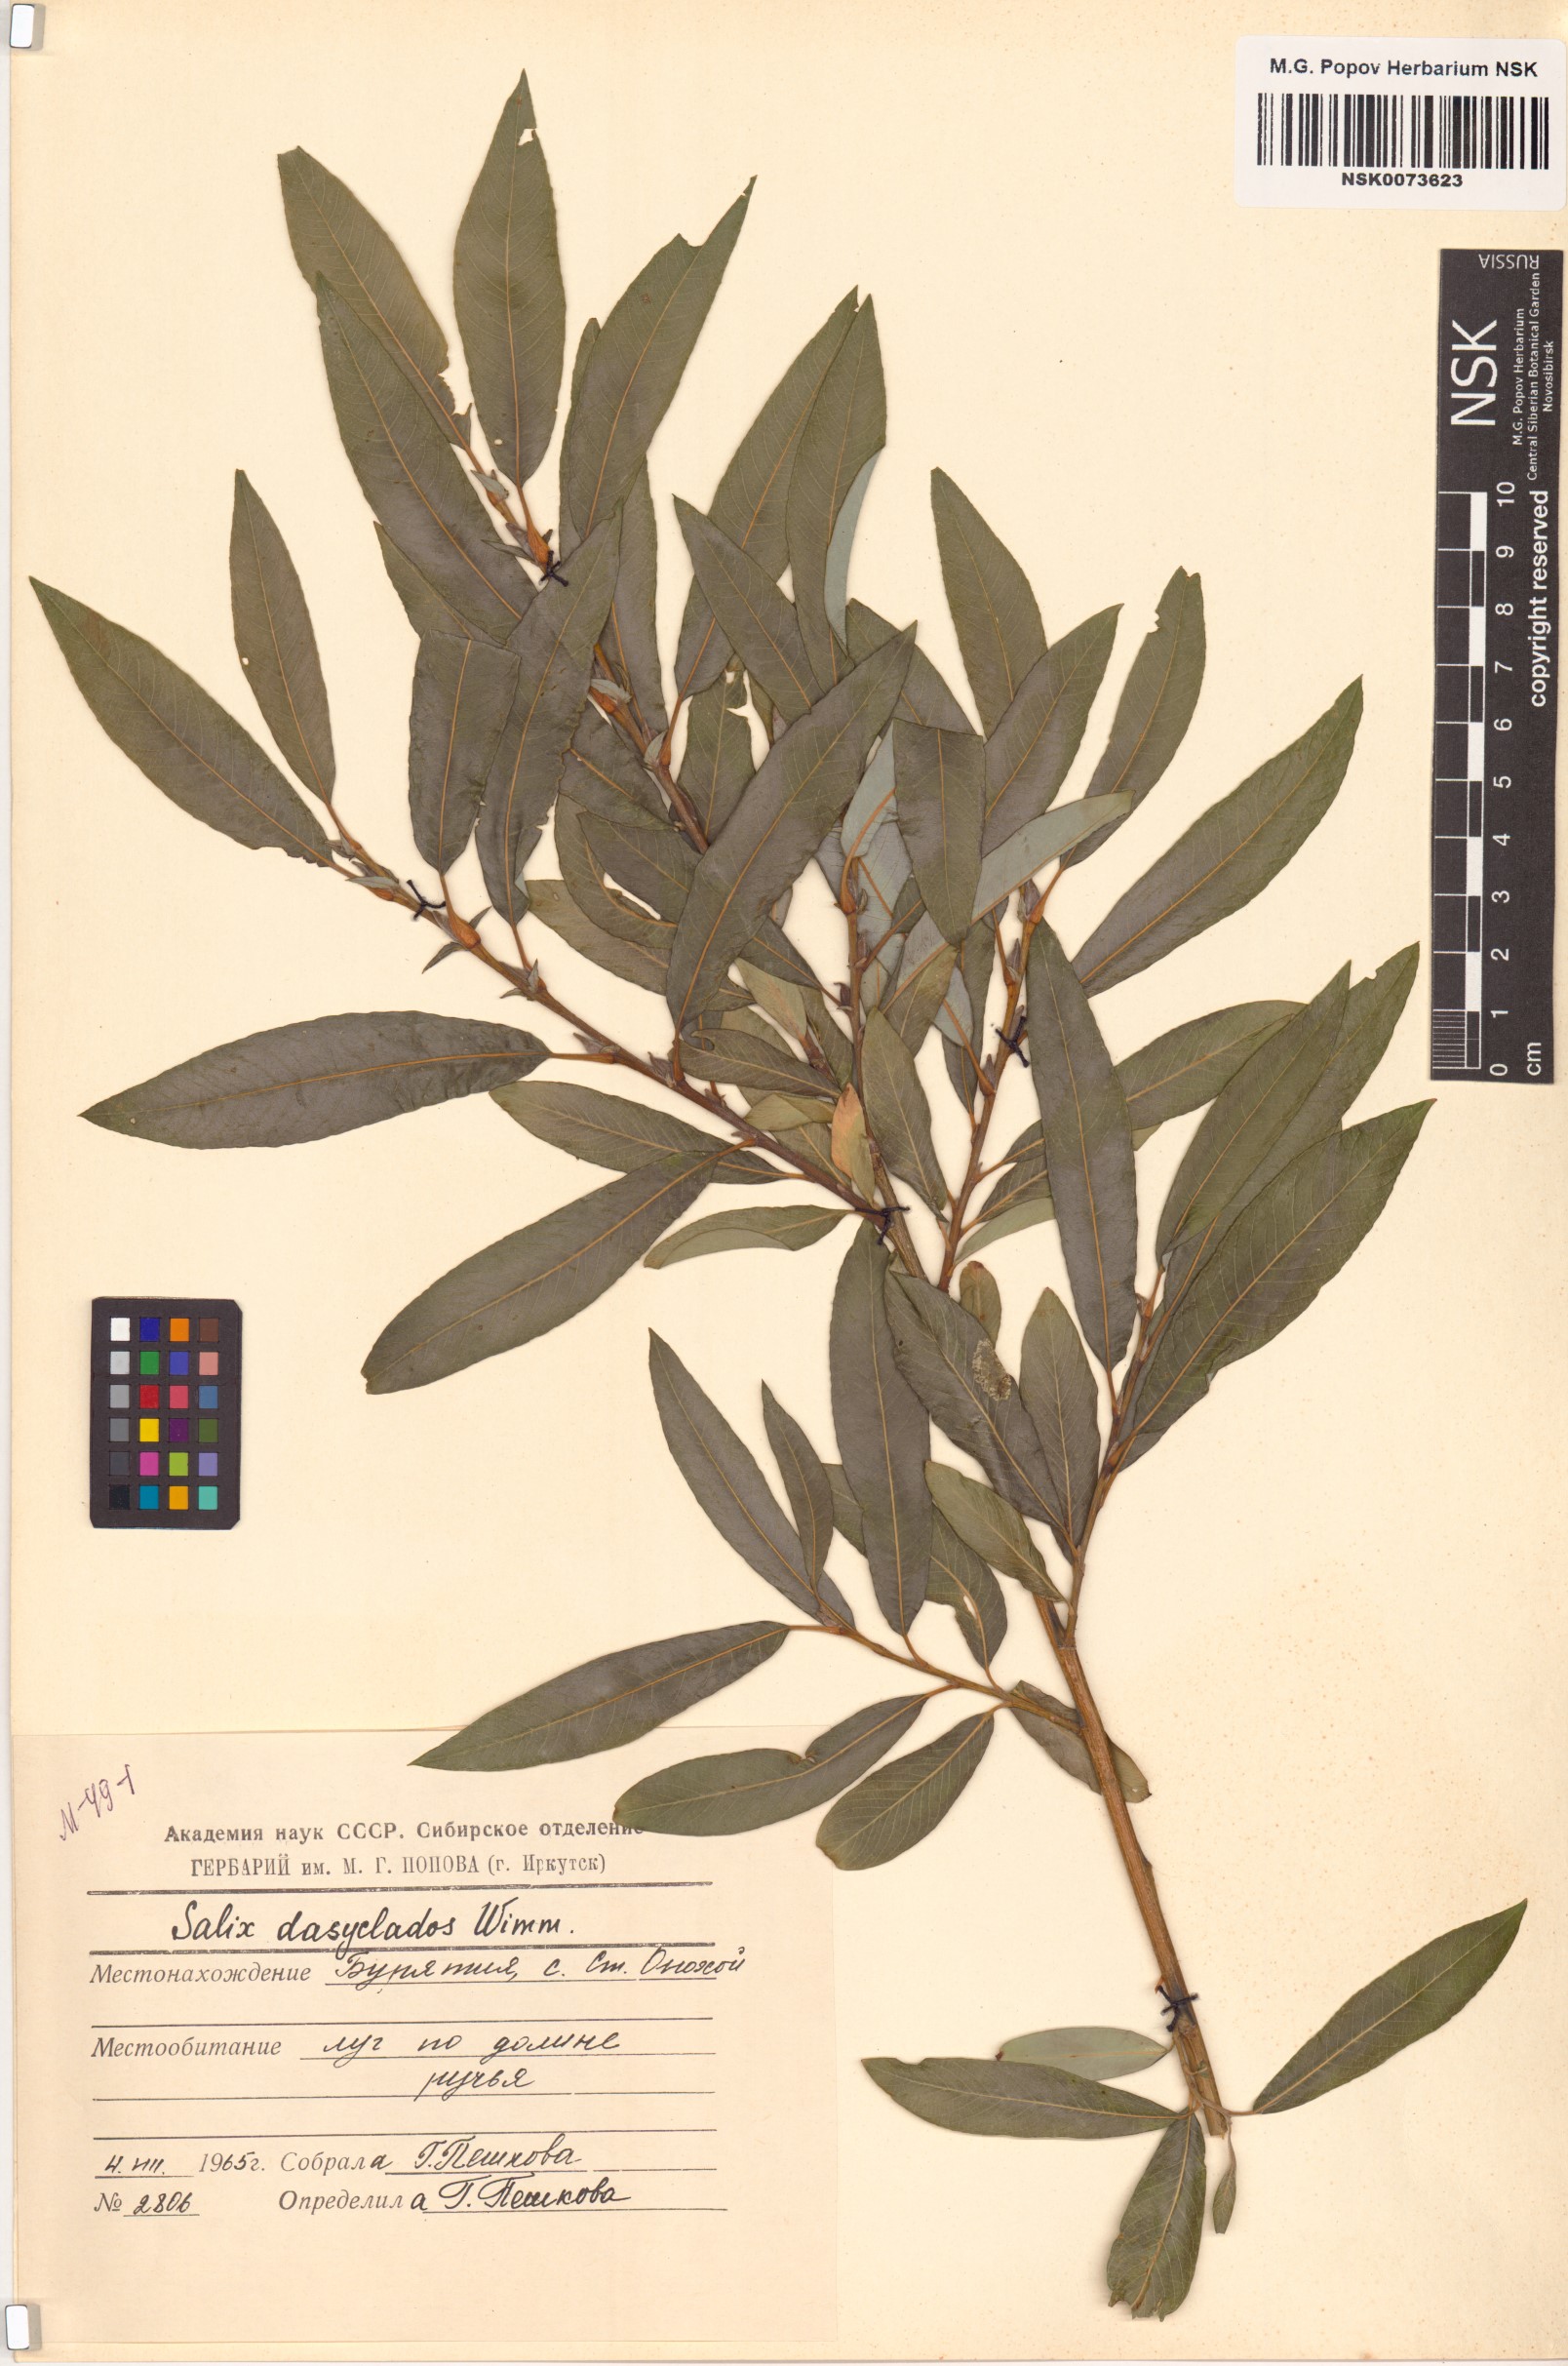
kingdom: Plantae
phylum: Tracheophyta
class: Magnoliopsida
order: Malpighiales
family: Salicaceae
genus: Salix
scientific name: Salix gmelinii
